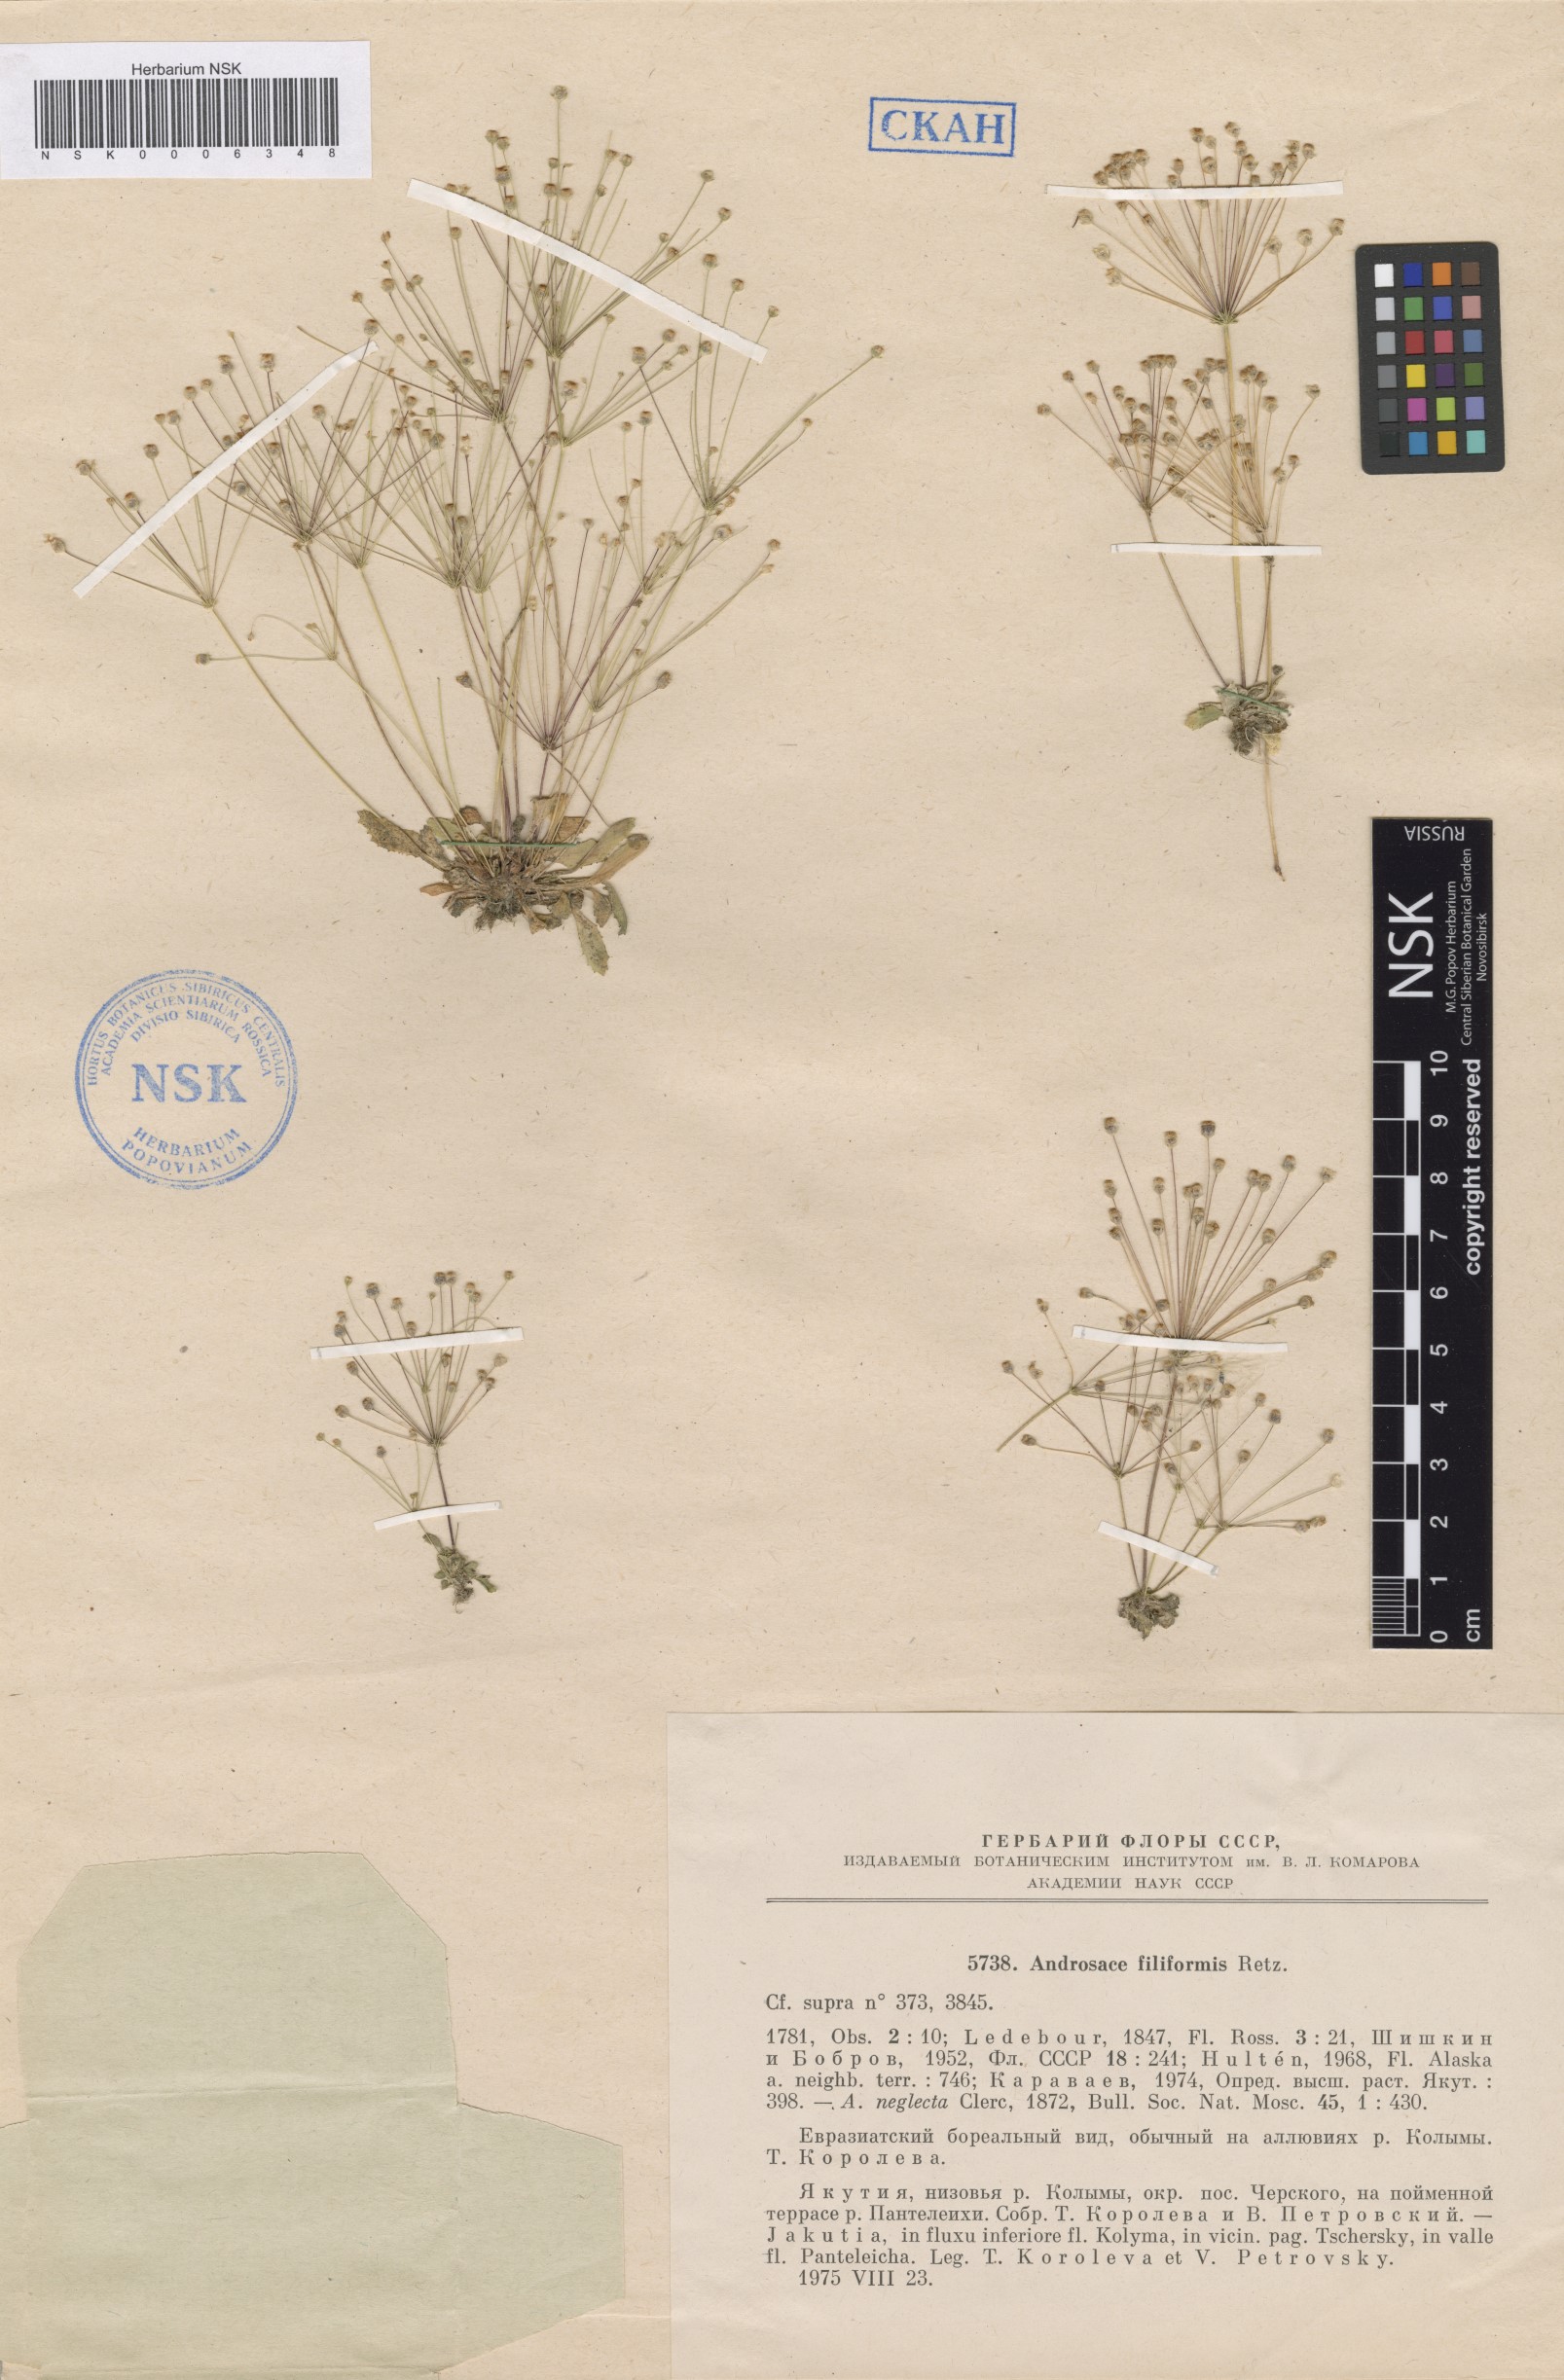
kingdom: Plantae
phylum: Tracheophyta
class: Magnoliopsida
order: Ericales
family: Primulaceae
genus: Androsace
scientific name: Androsace filiformis
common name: Filiform rock jasmine
